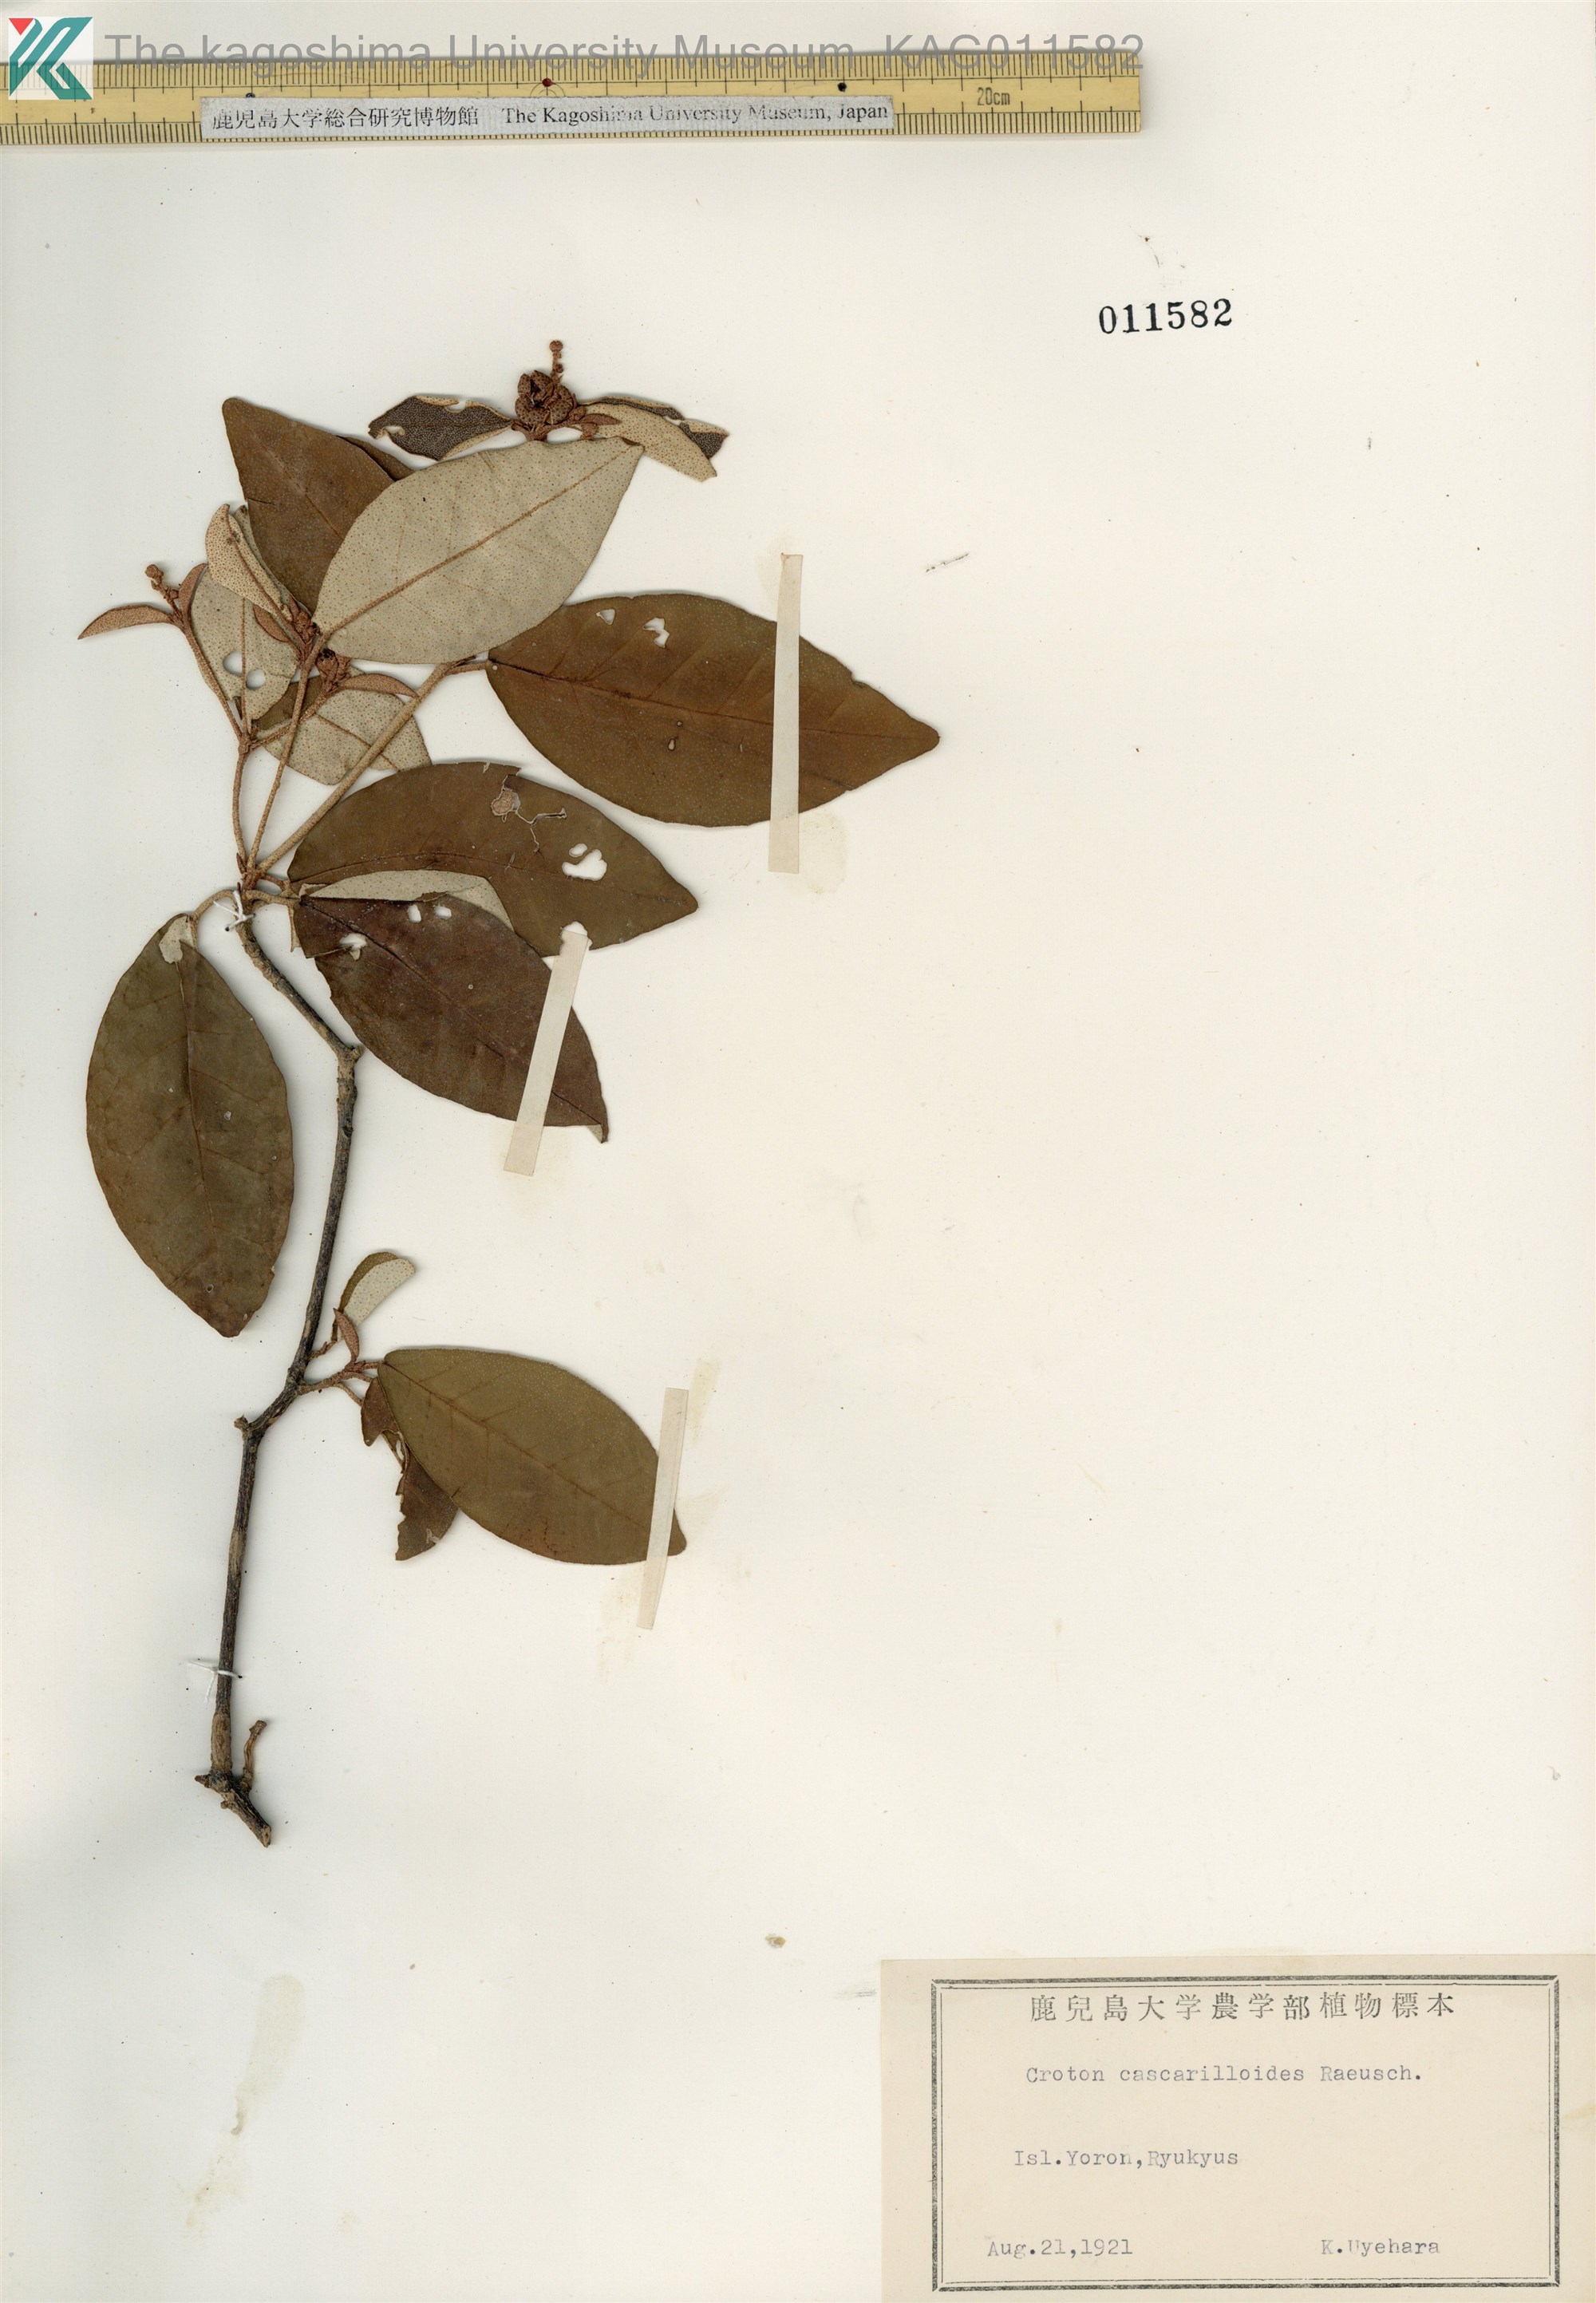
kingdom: Plantae
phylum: Tracheophyta
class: Magnoliopsida
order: Malpighiales
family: Euphorbiaceae
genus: Croton
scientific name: Croton cascarilloides
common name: グミモドキ
